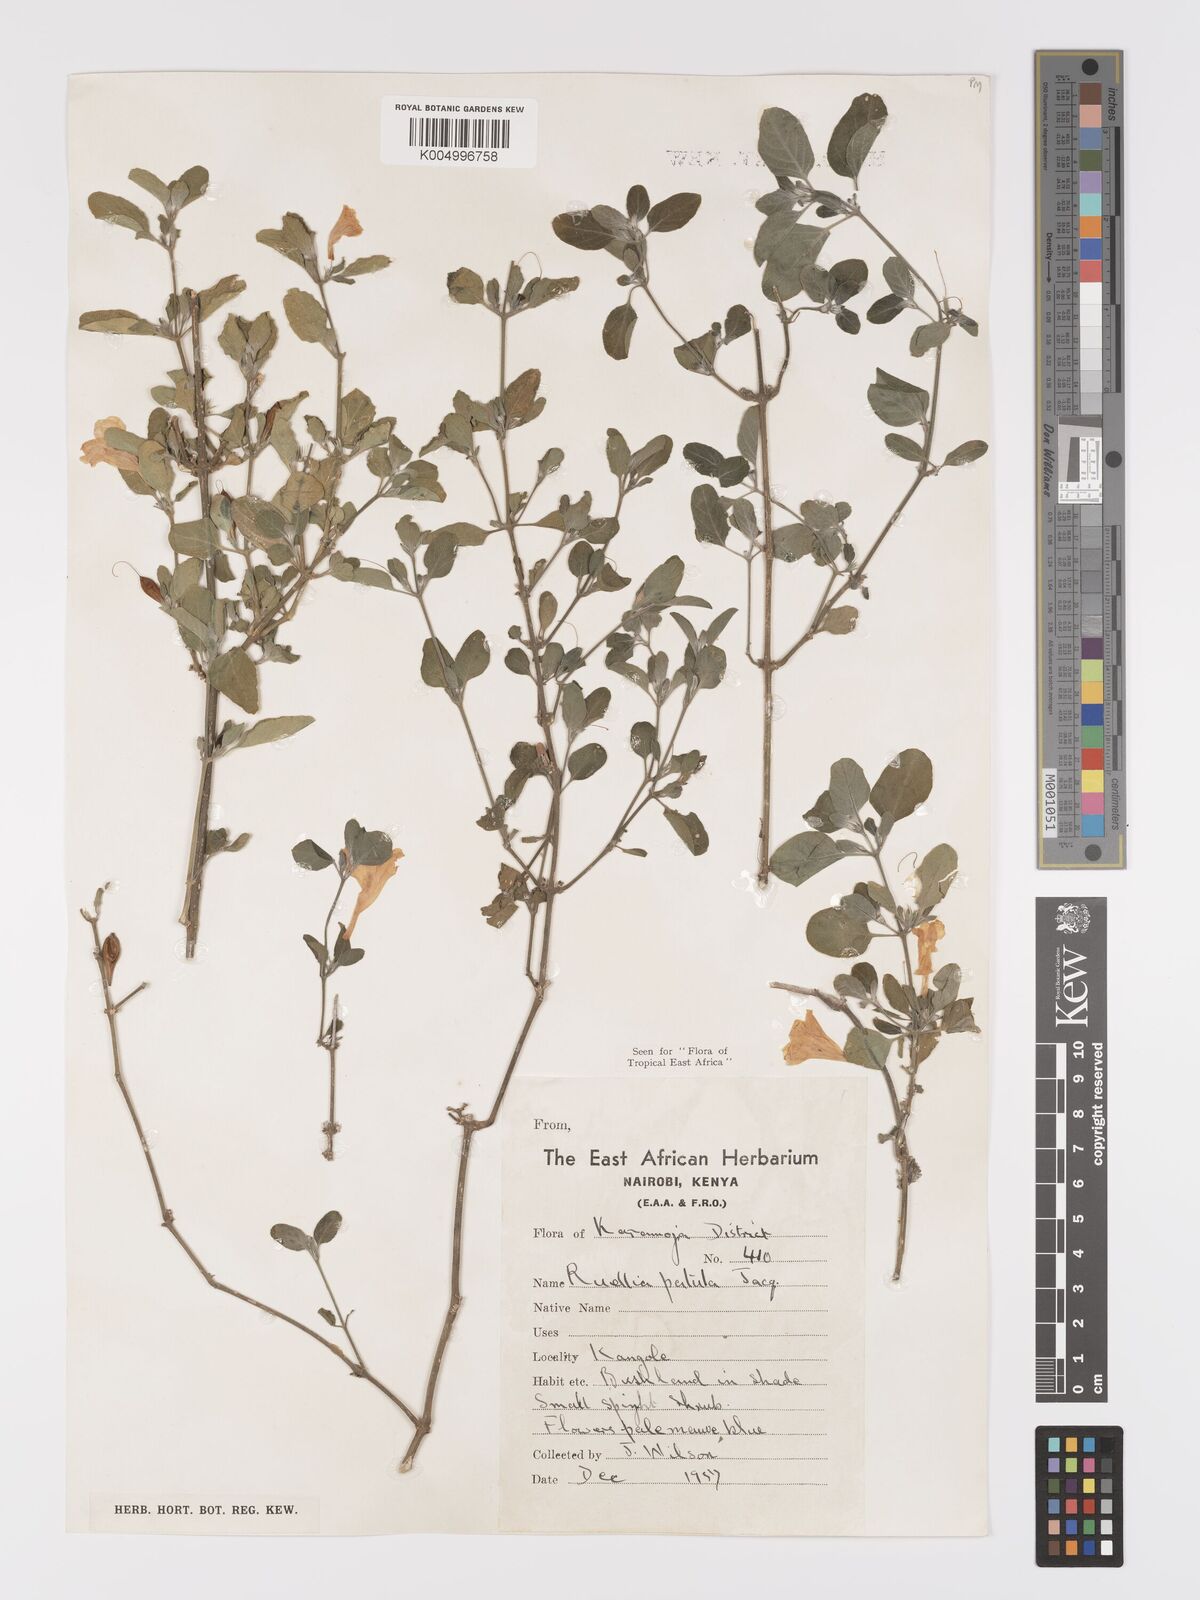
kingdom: Plantae
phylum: Tracheophyta
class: Magnoliopsida
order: Lamiales
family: Acanthaceae
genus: Ruellia
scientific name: Ruellia patula
